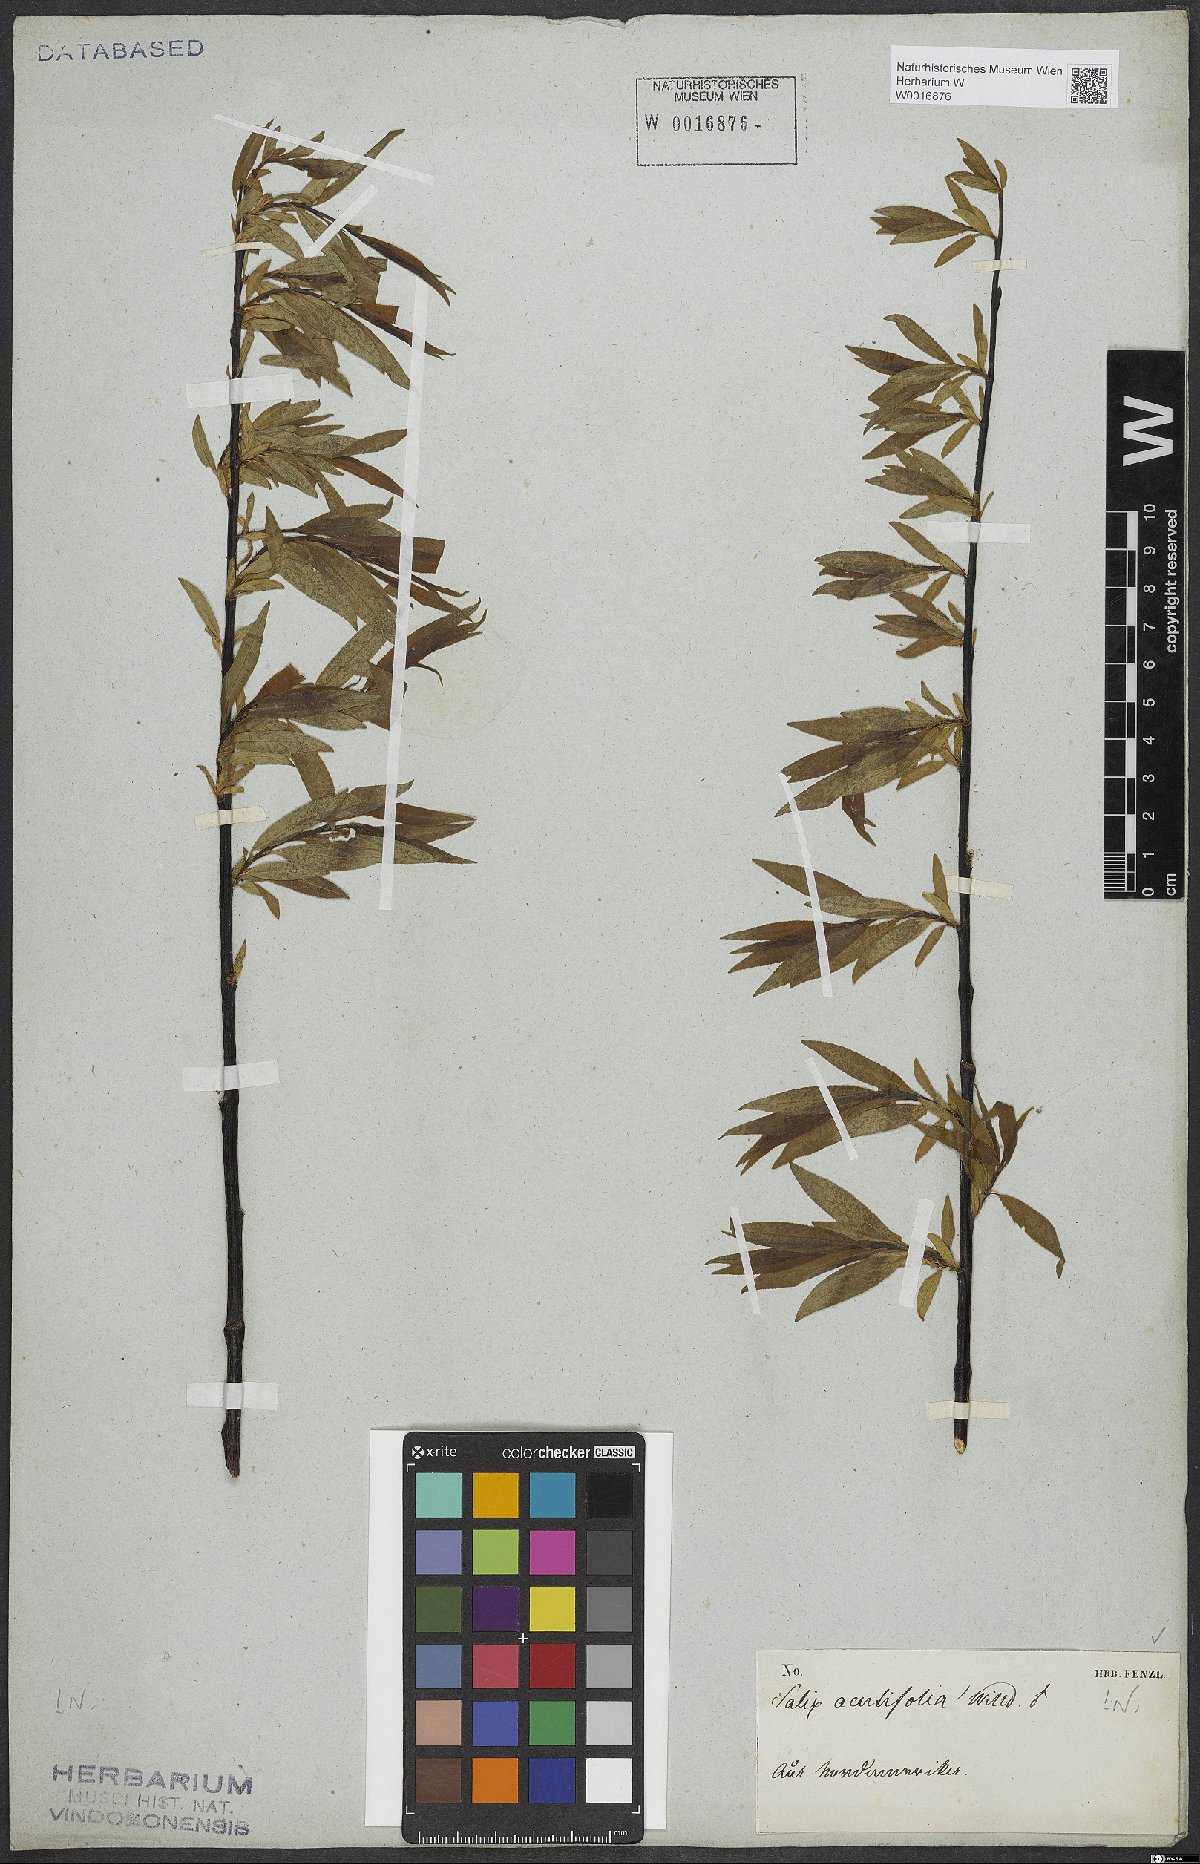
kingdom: Plantae
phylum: Tracheophyta
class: Magnoliopsida
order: Malpighiales
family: Salicaceae
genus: Salix
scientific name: Salix acutifolia
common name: Siberian violet-willow
